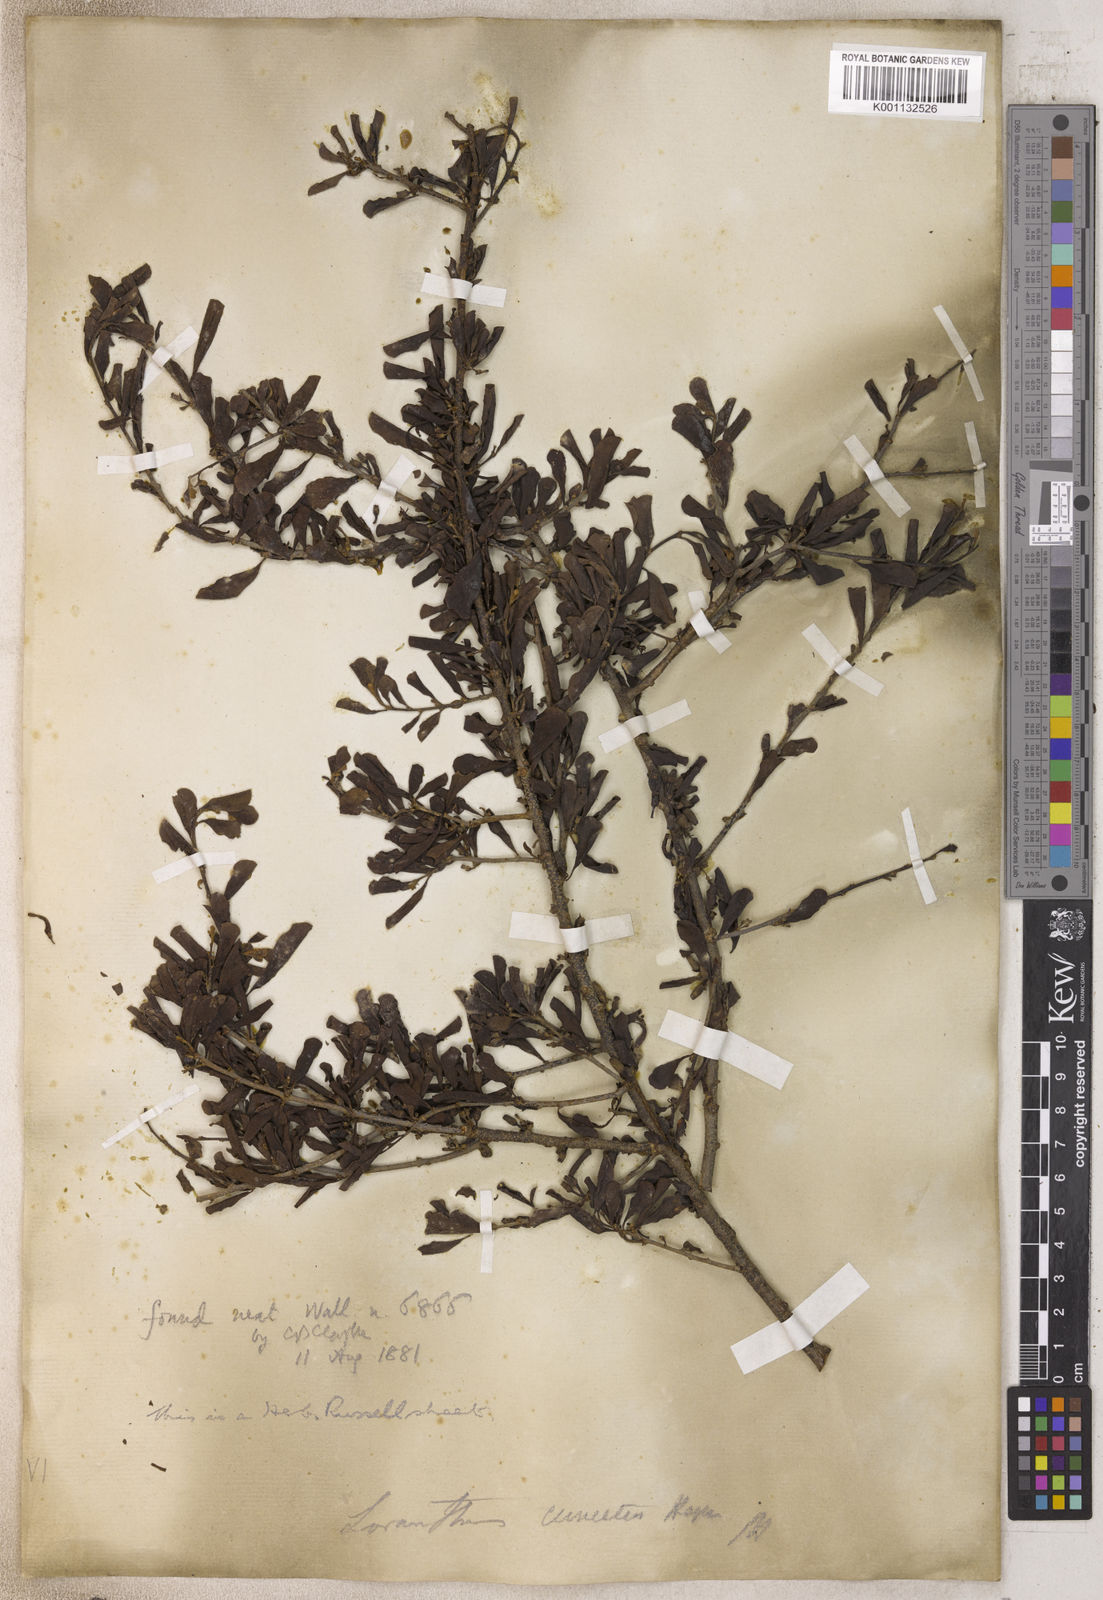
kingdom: Plantae
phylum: Tracheophyta
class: Magnoliopsida
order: Santalales
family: Loranthaceae
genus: Loranthus
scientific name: Loranthus
